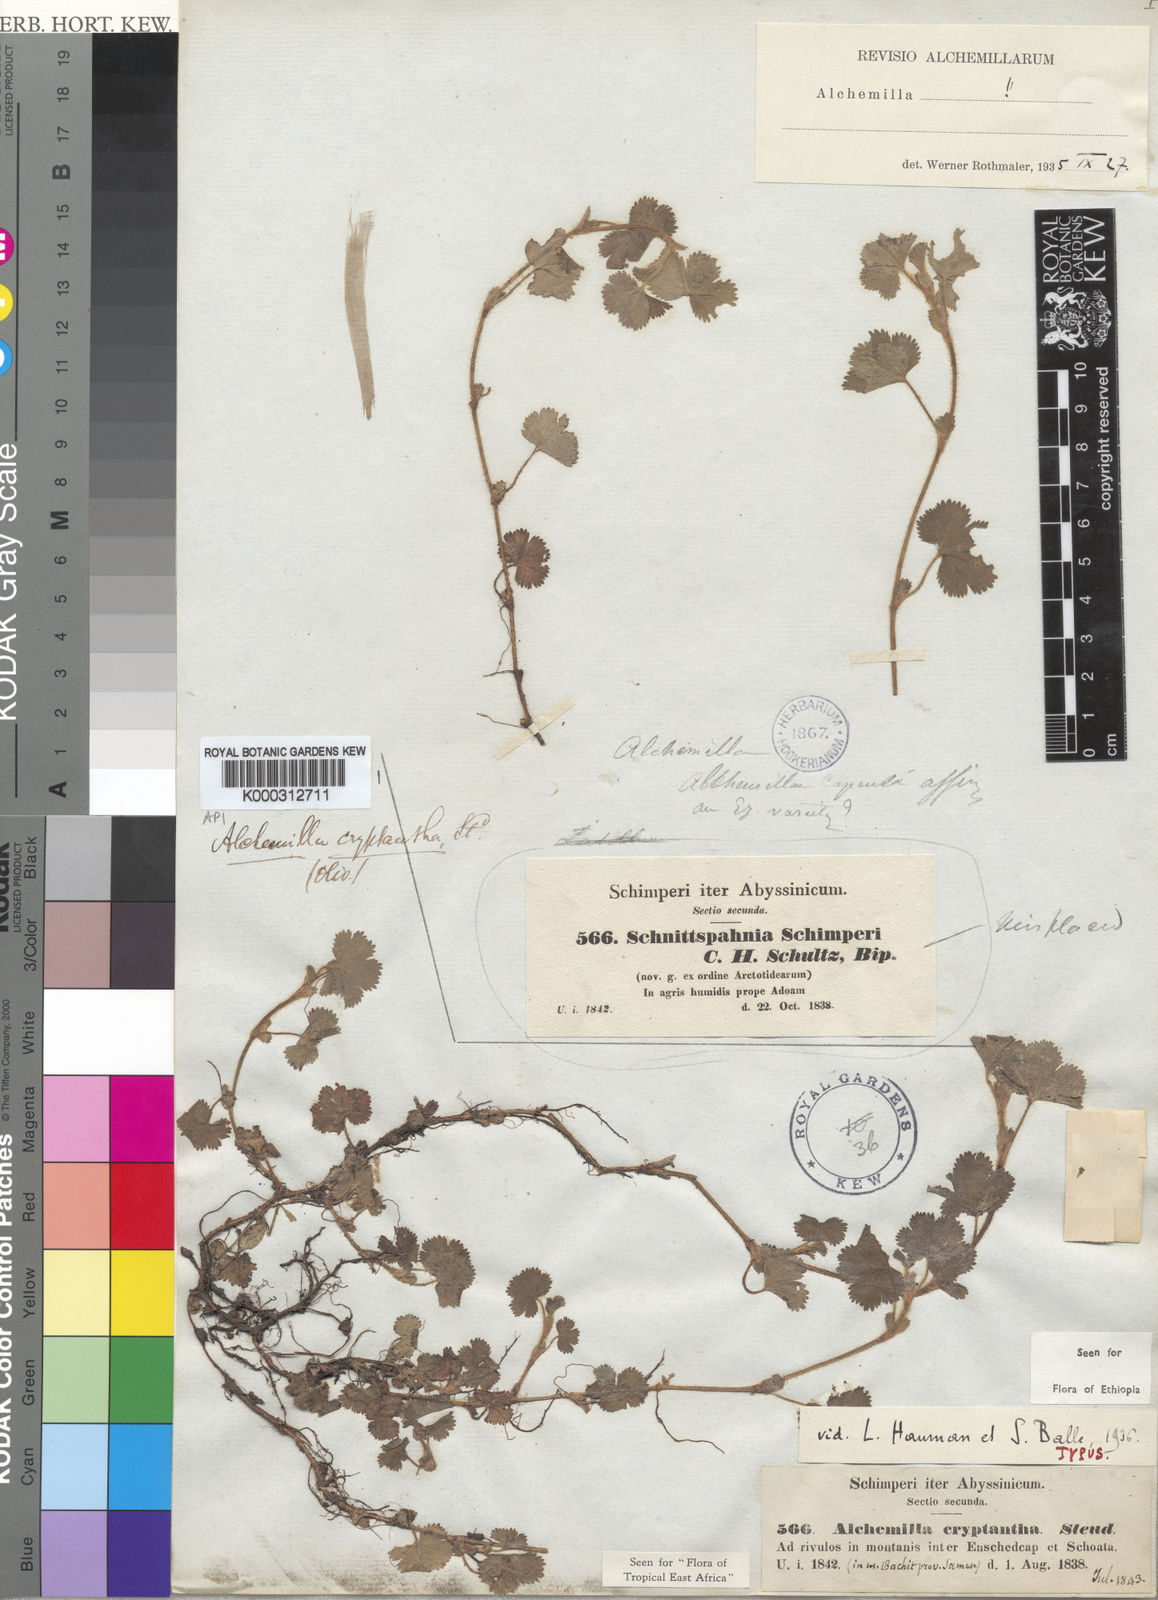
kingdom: Plantae
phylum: Tracheophyta
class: Magnoliopsida
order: Rosales
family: Rosaceae
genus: Alchemilla
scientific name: Alchemilla cryptantha
